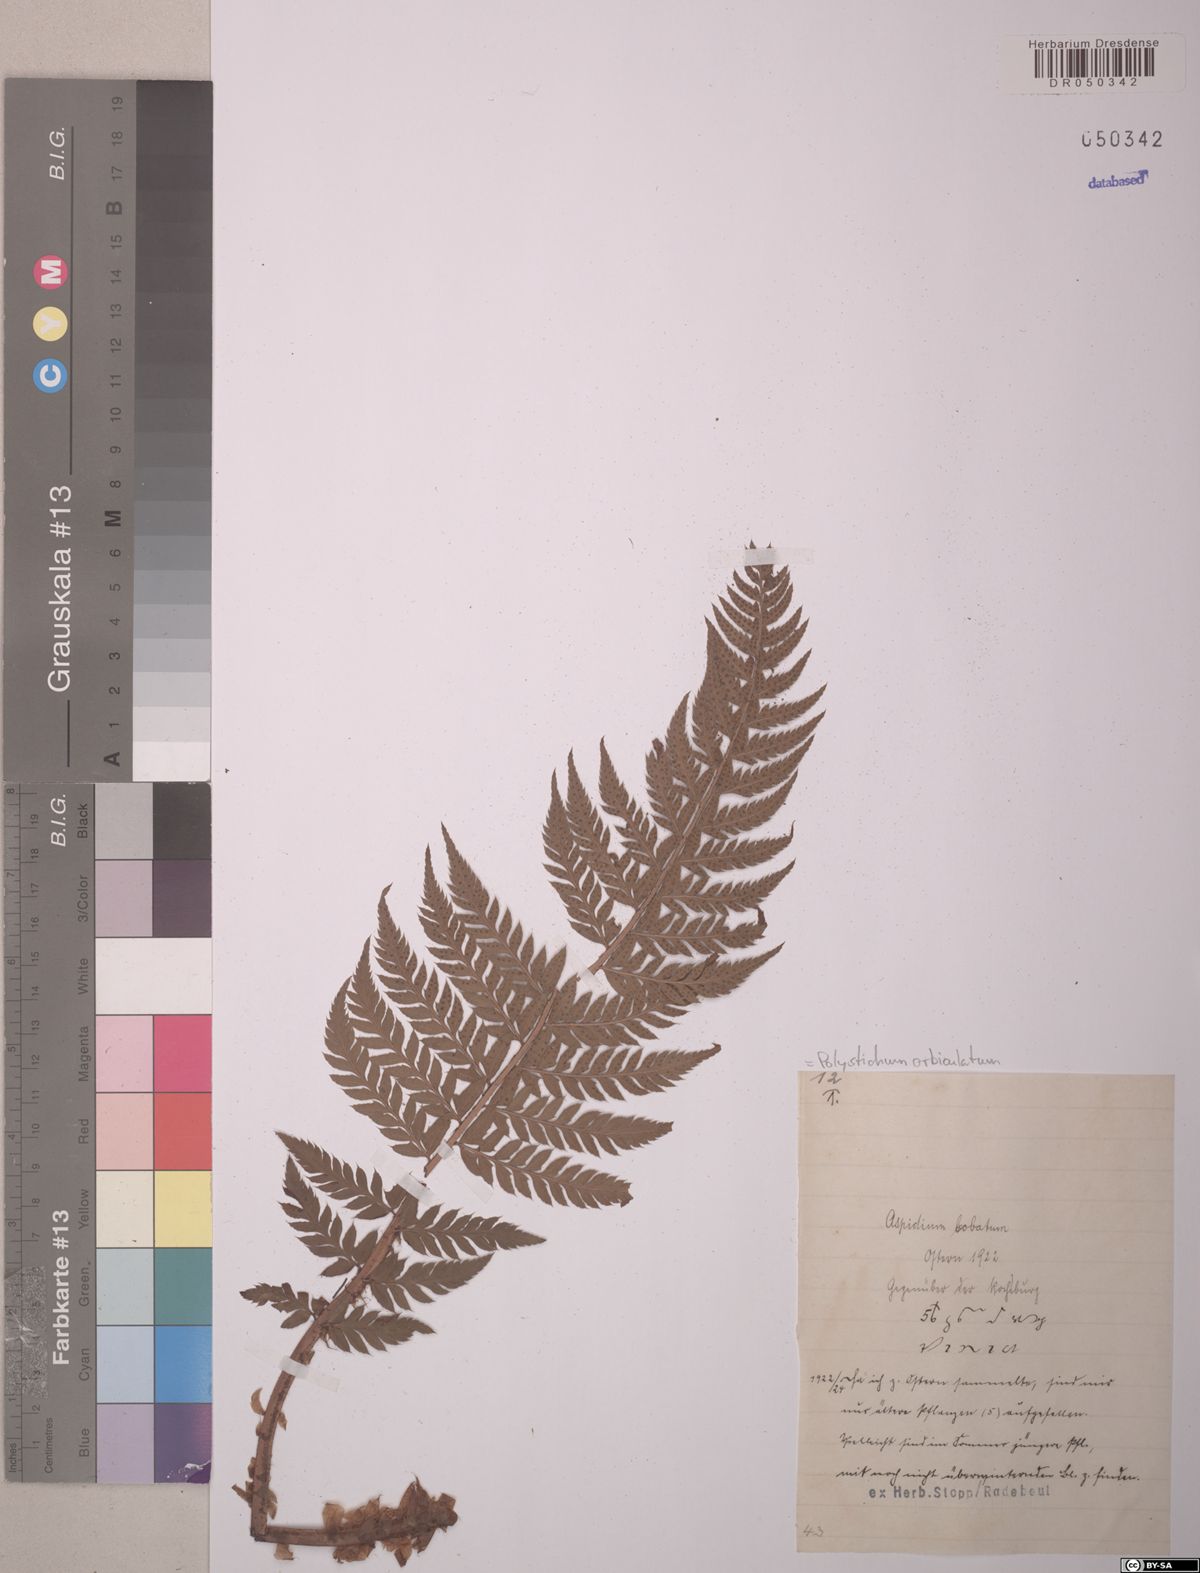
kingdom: Plantae
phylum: Tracheophyta
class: Polypodiopsida
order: Polypodiales
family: Dryopteridaceae
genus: Polystichum
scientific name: Polystichum aculeatum
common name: Hard shield-fern
